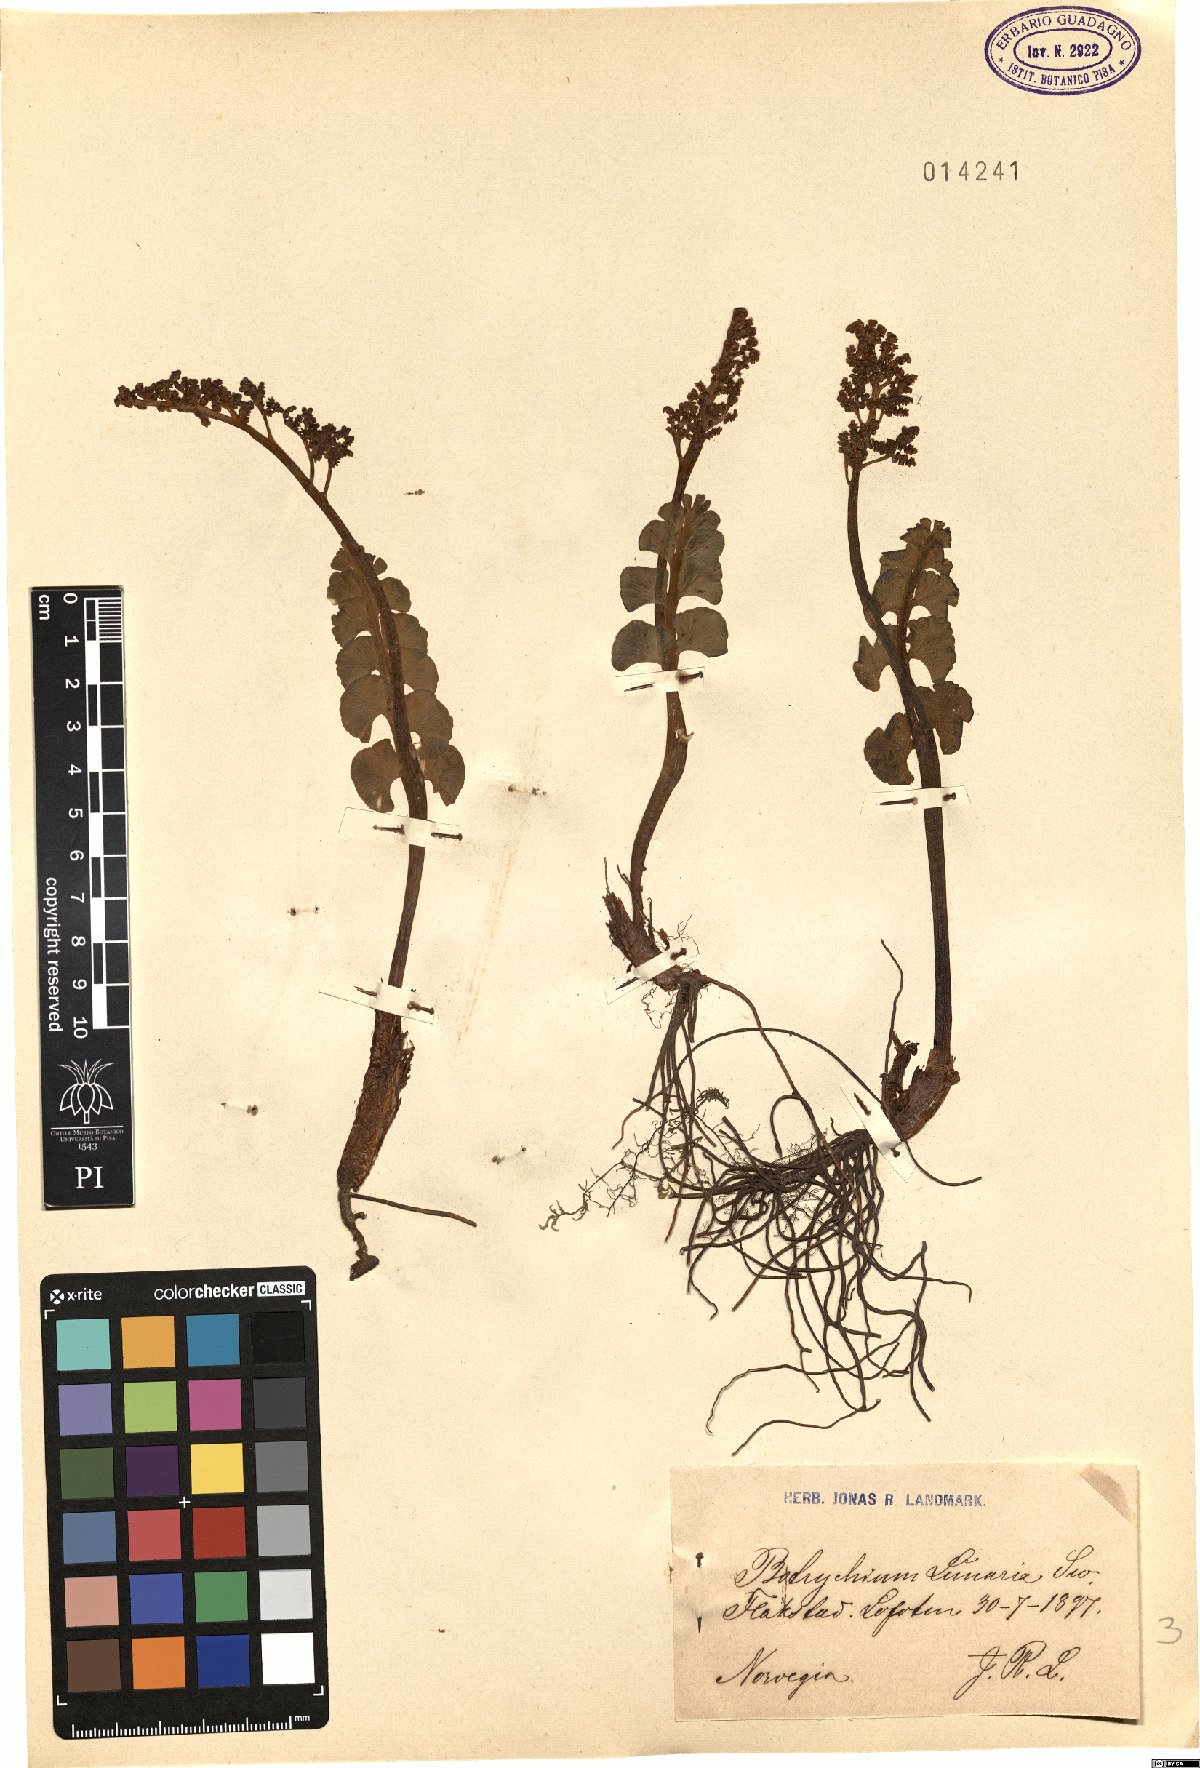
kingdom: Plantae
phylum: Tracheophyta
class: Polypodiopsida
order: Ophioglossales
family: Ophioglossaceae
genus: Botrychium
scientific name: Botrychium lunaria
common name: Moonwort
